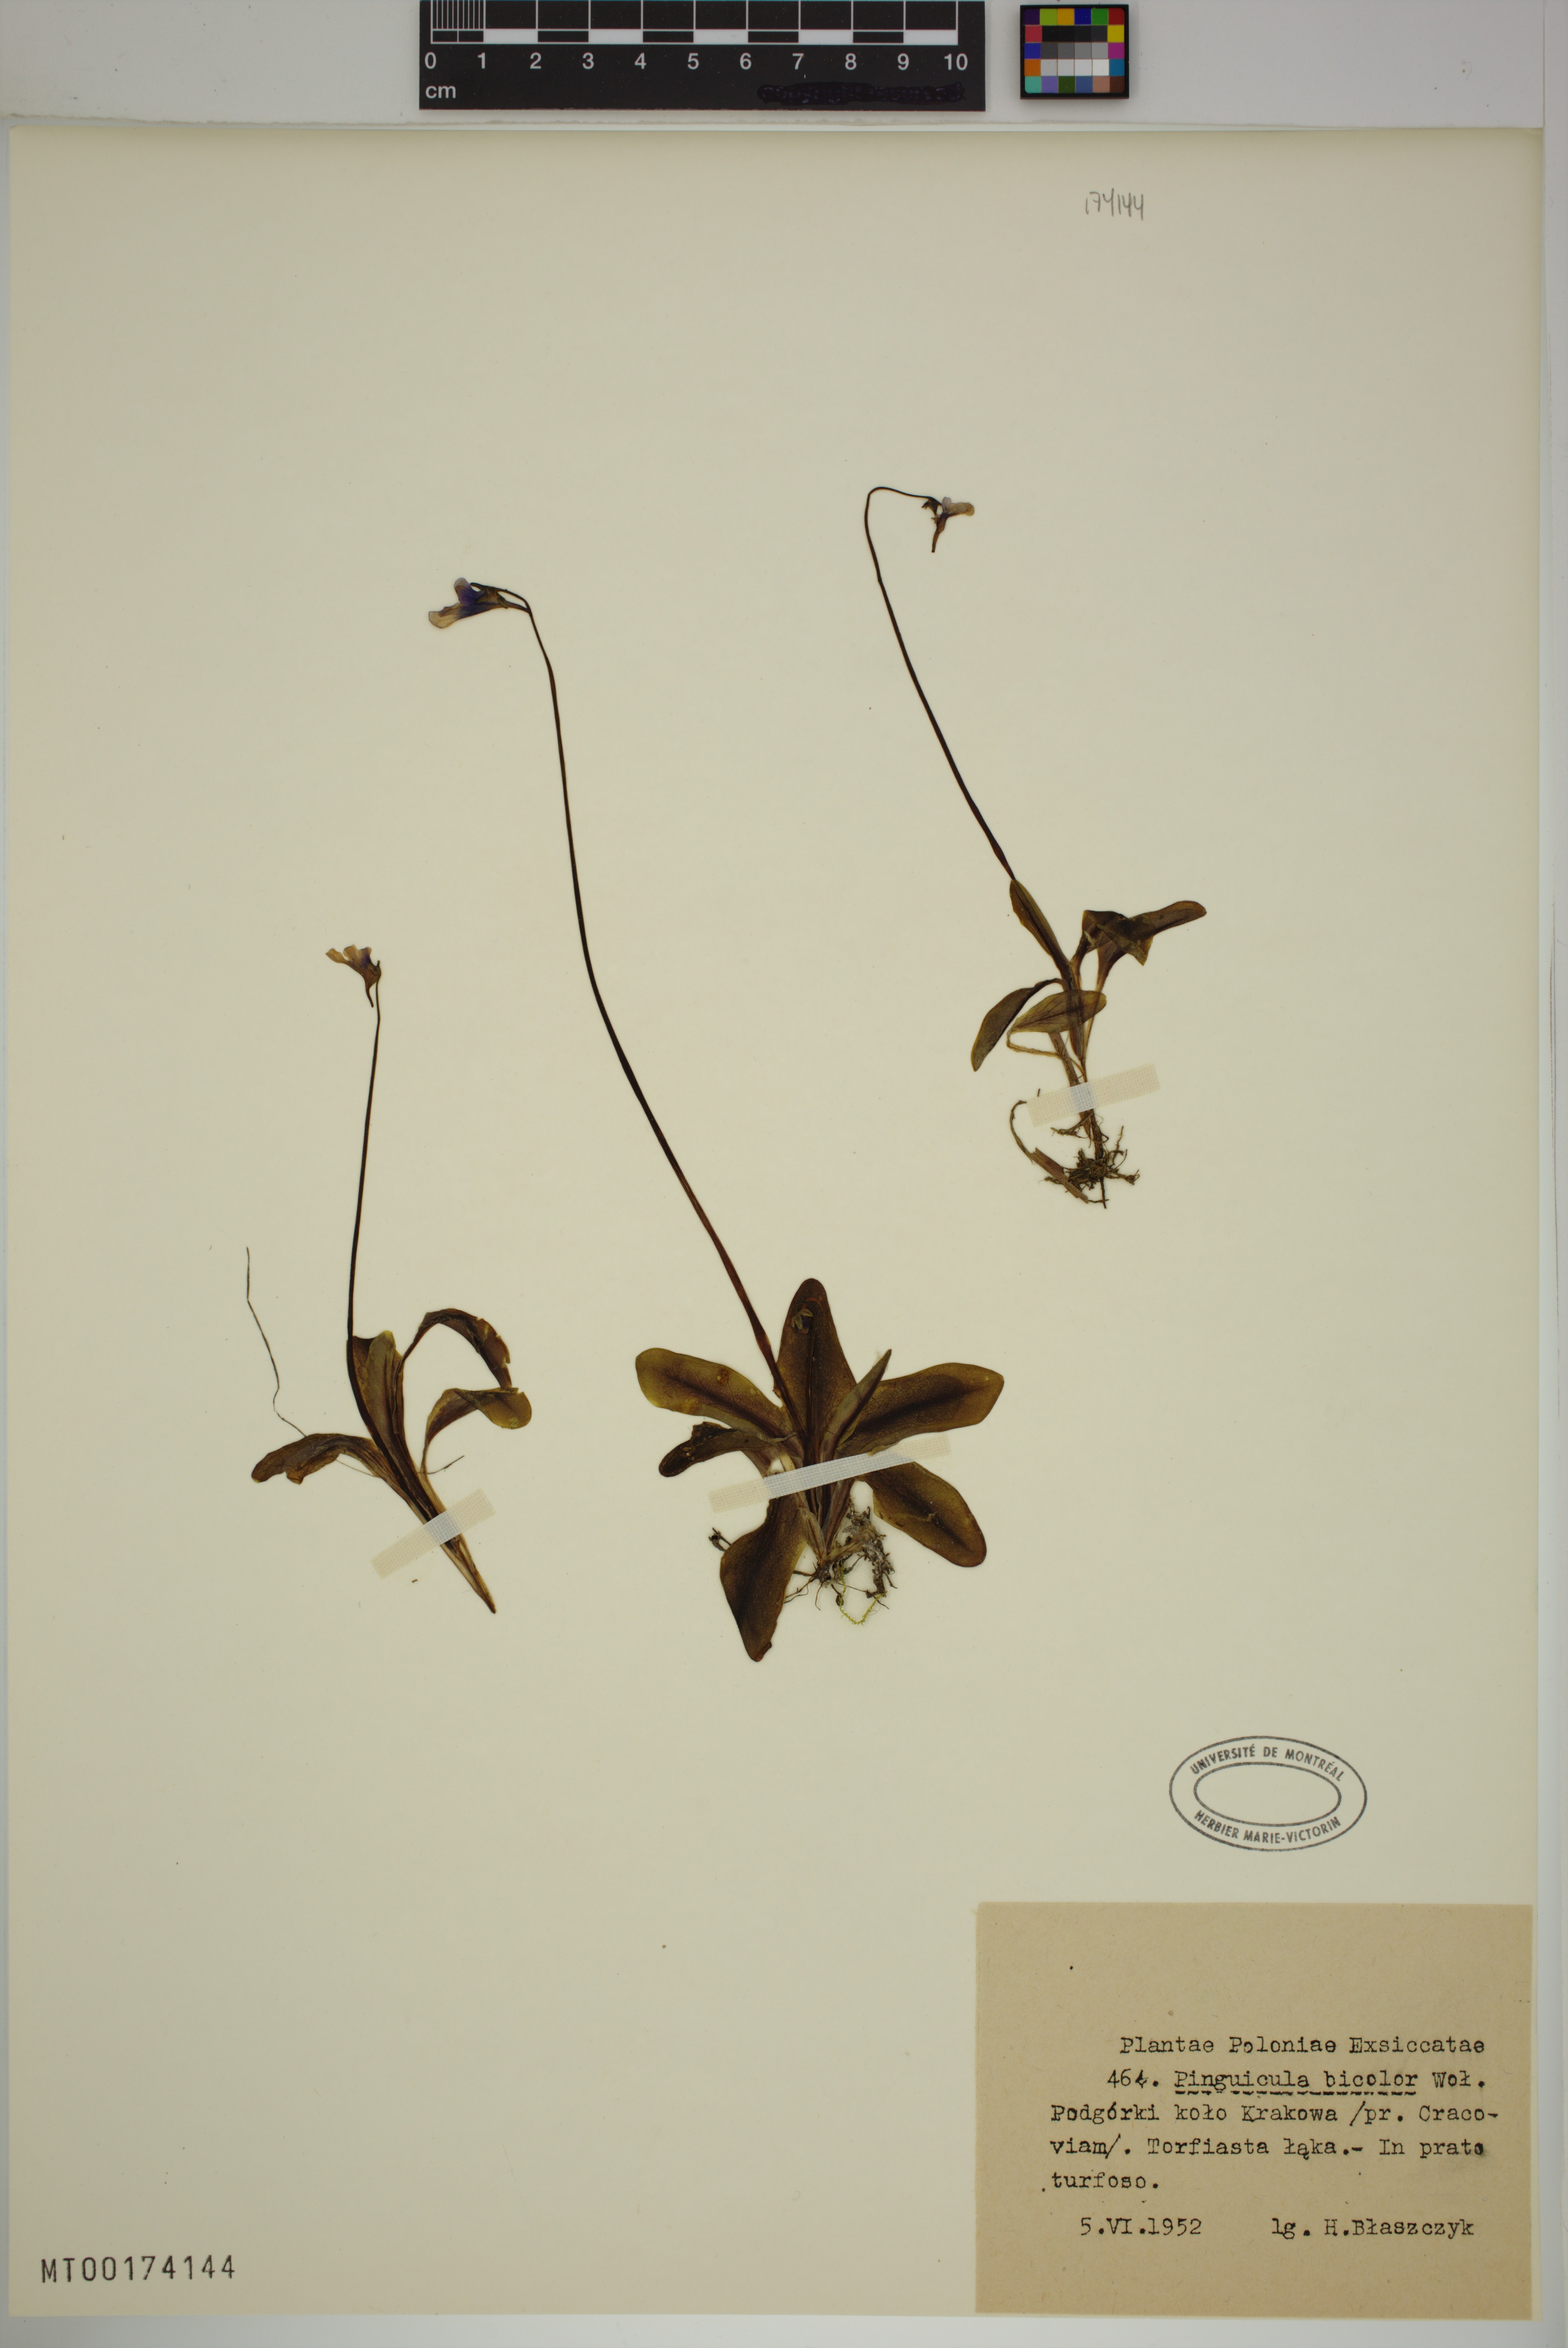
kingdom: Plantae
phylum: Tracheophyta
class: Magnoliopsida
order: Lamiales
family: Lentibulariaceae
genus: Pinguicula
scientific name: Pinguicula vulgaris
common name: Common butterwort
